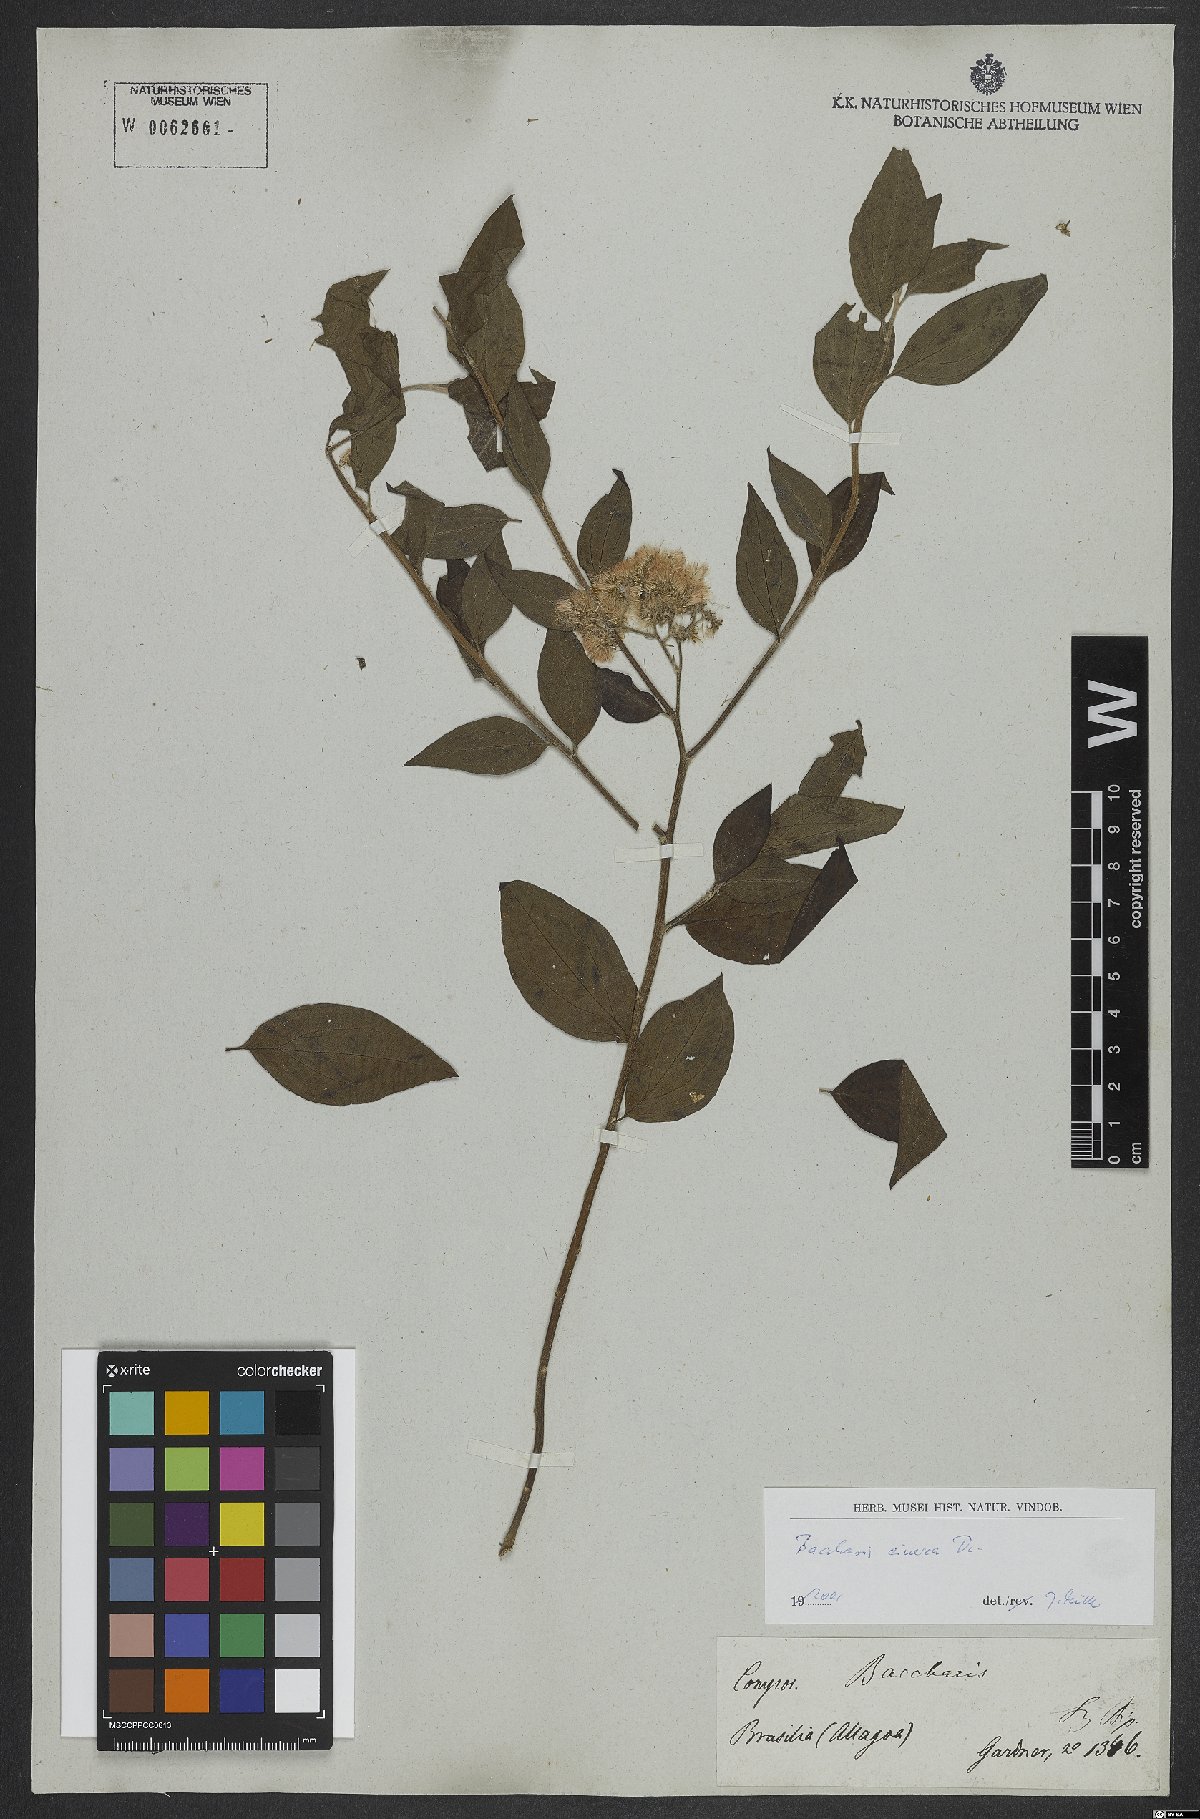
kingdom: Plantae
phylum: Tracheophyta
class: Magnoliopsida
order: Asterales
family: Asteraceae
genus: Baccharis
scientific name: Baccharis trinervis
